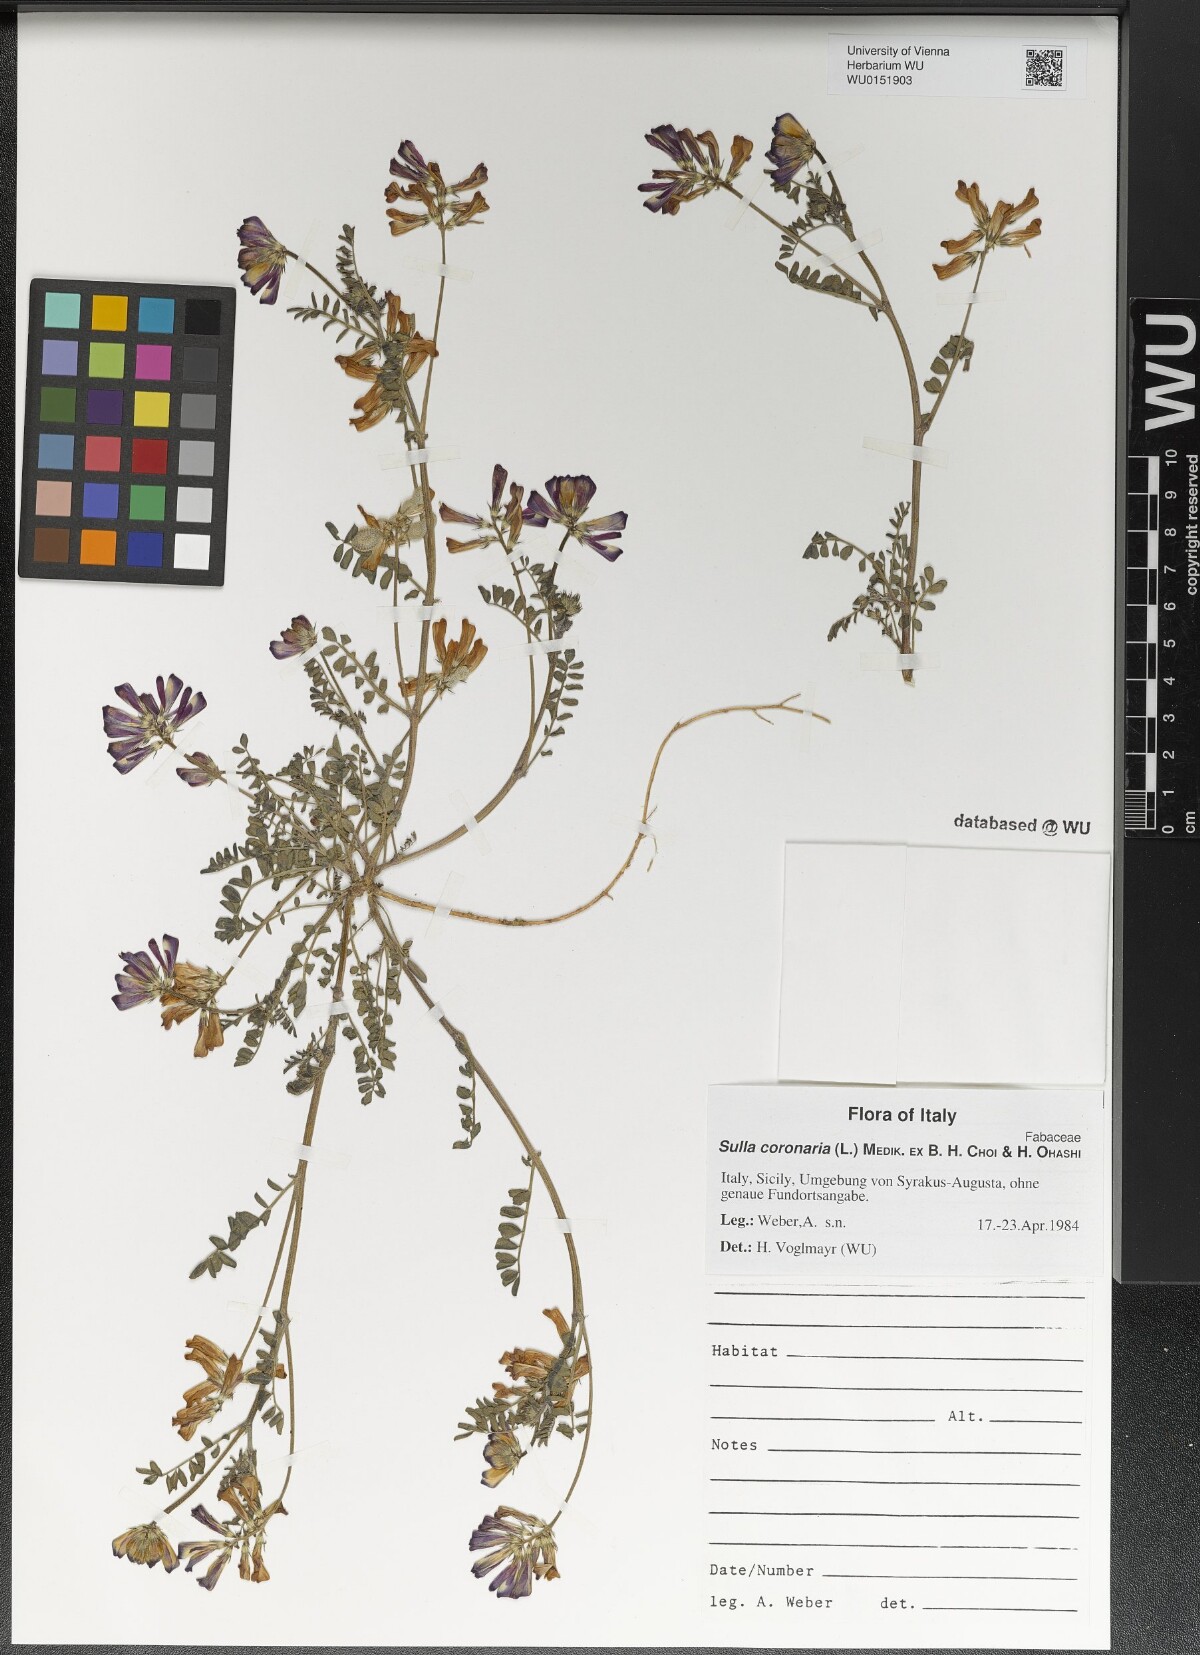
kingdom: Plantae
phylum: Tracheophyta
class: Magnoliopsida
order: Fabales
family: Fabaceae
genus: Sulla
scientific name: Sulla coronaria
